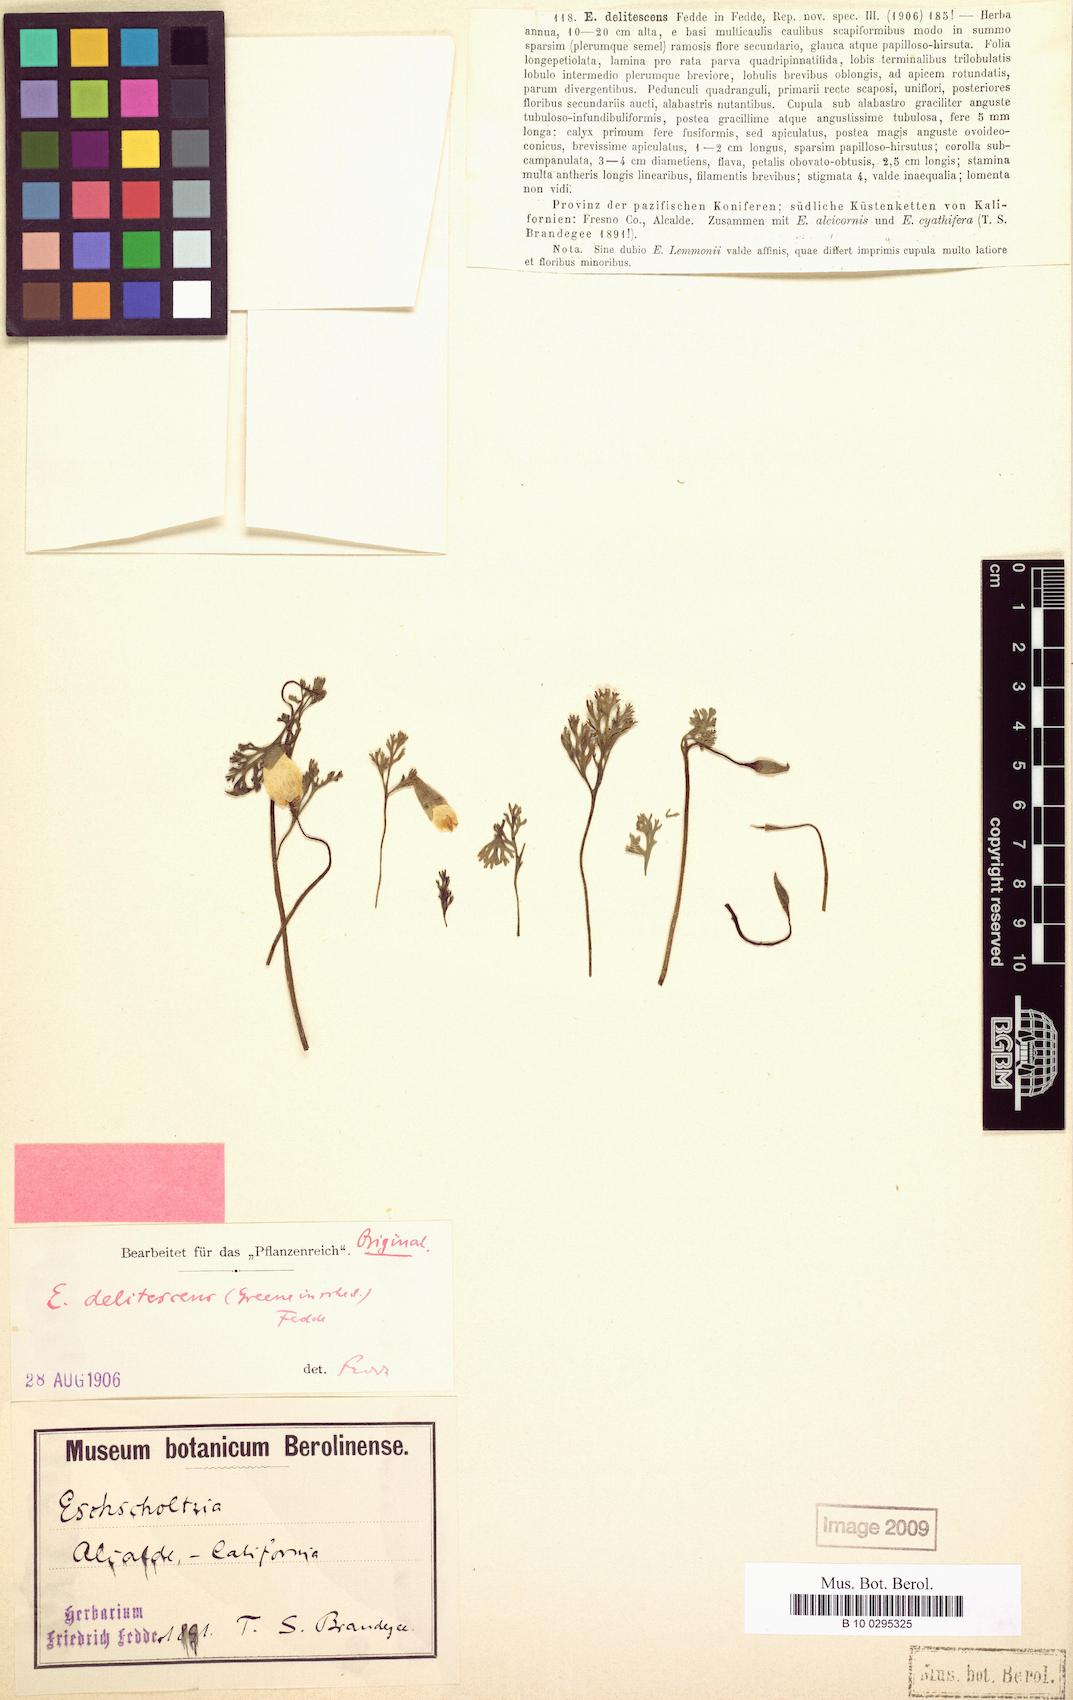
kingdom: Plantae
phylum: Tracheophyta
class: Magnoliopsida
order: Ranunculales
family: Papaveraceae
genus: Eschscholzia
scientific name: Eschscholzia lemmonii
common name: Lemmon's poppy
